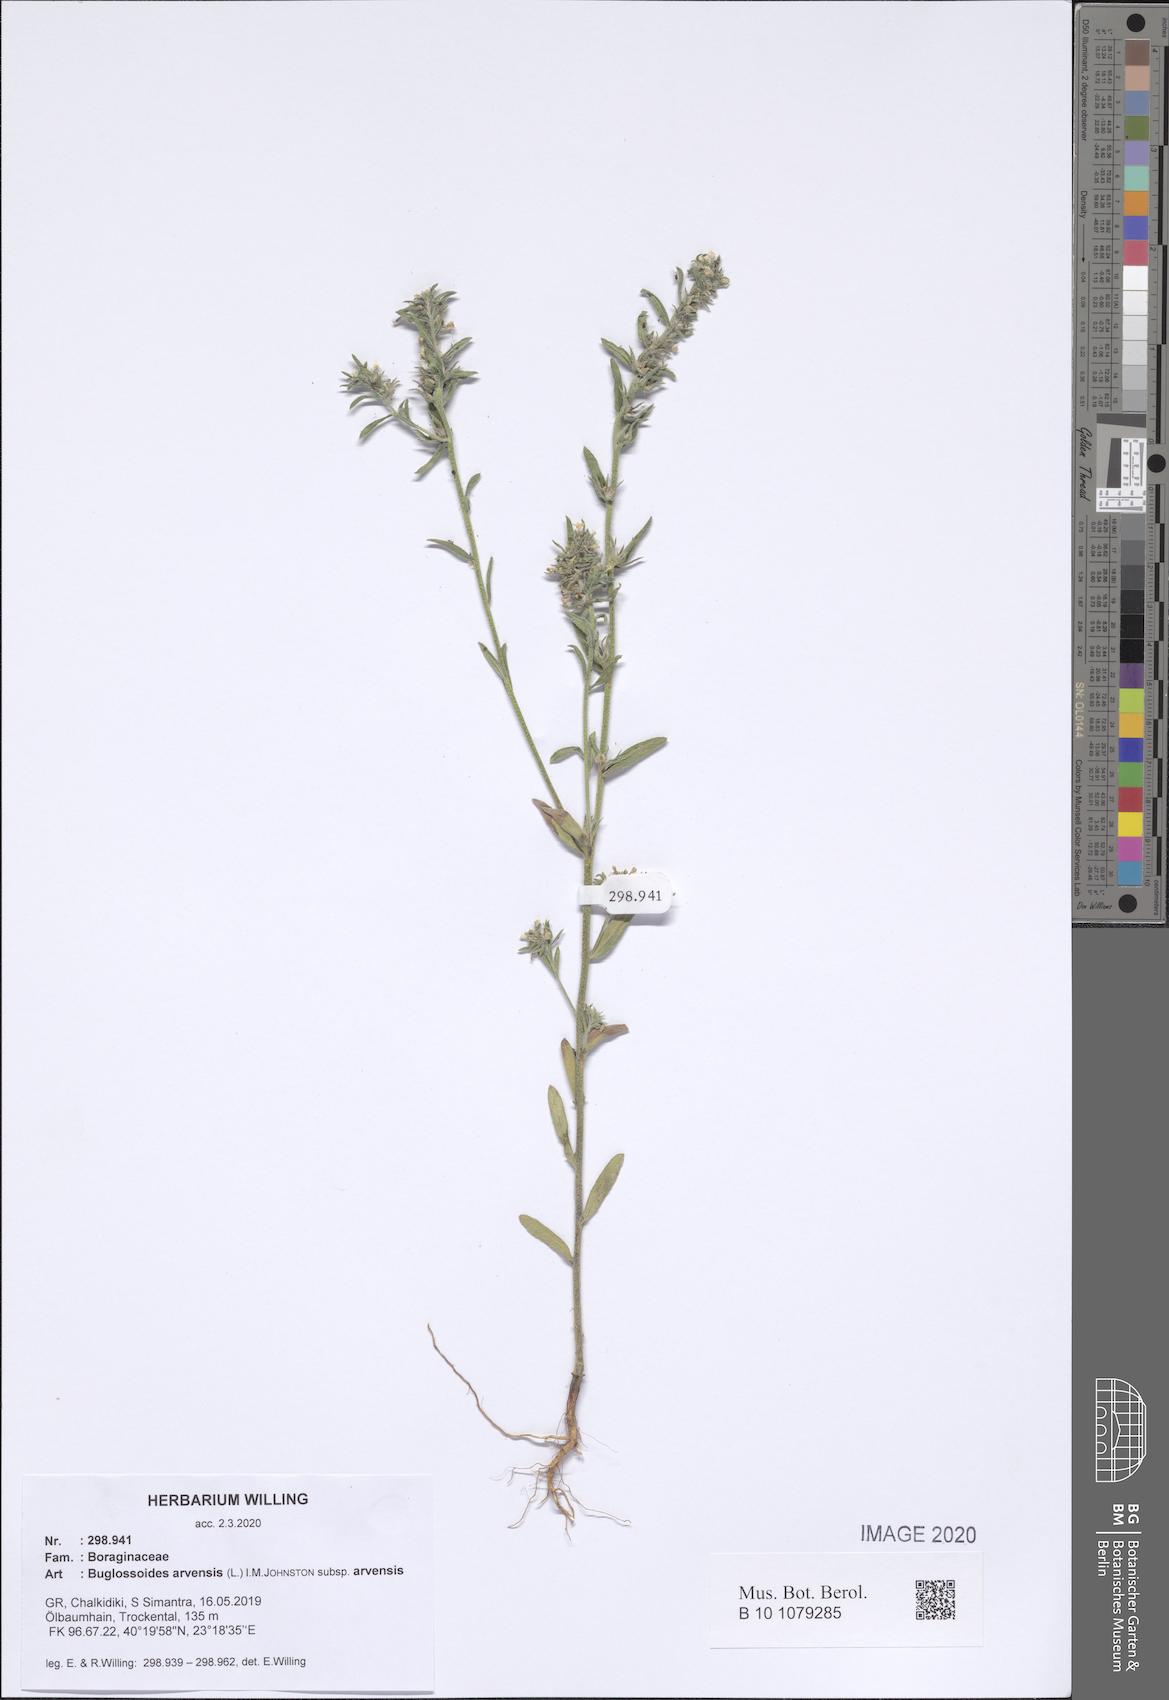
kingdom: Plantae
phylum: Tracheophyta
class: Magnoliopsida
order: Boraginales
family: Boraginaceae
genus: Buglossoides
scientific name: Buglossoides arvensis
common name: Corn gromwell
